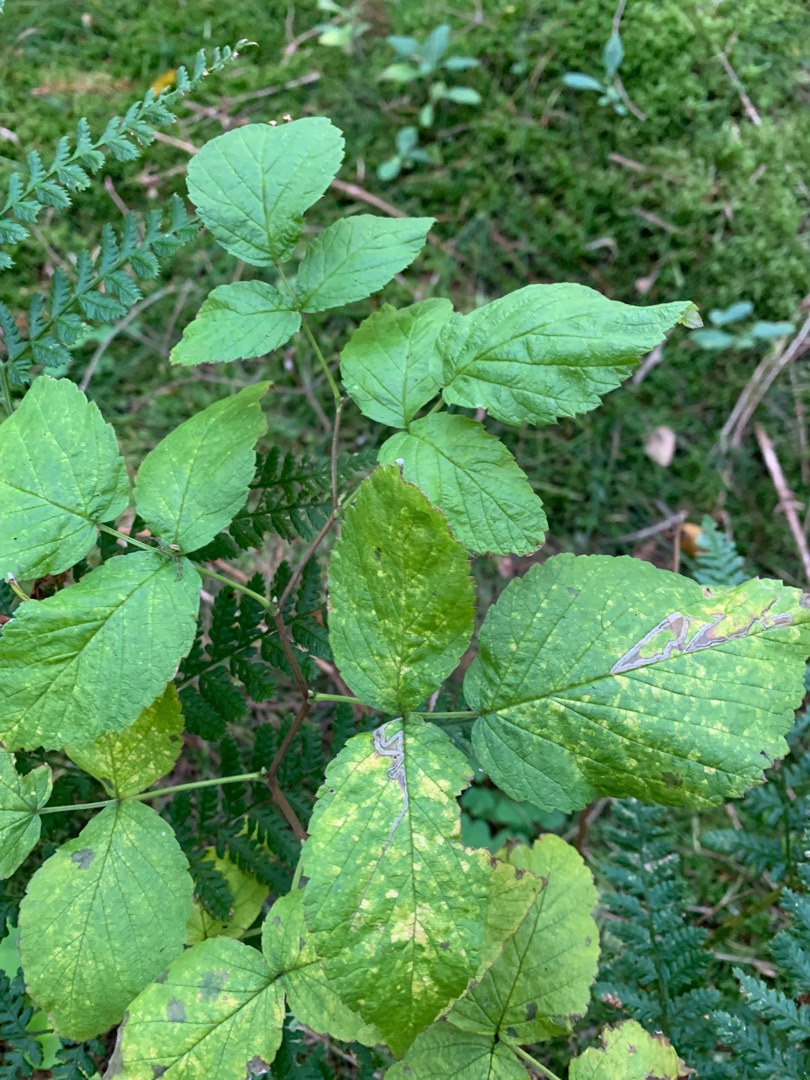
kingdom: Plantae
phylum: Tracheophyta
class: Magnoliopsida
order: Rosales
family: Rosaceae
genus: Rubus
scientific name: Rubus idaeus
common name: Hindbær
